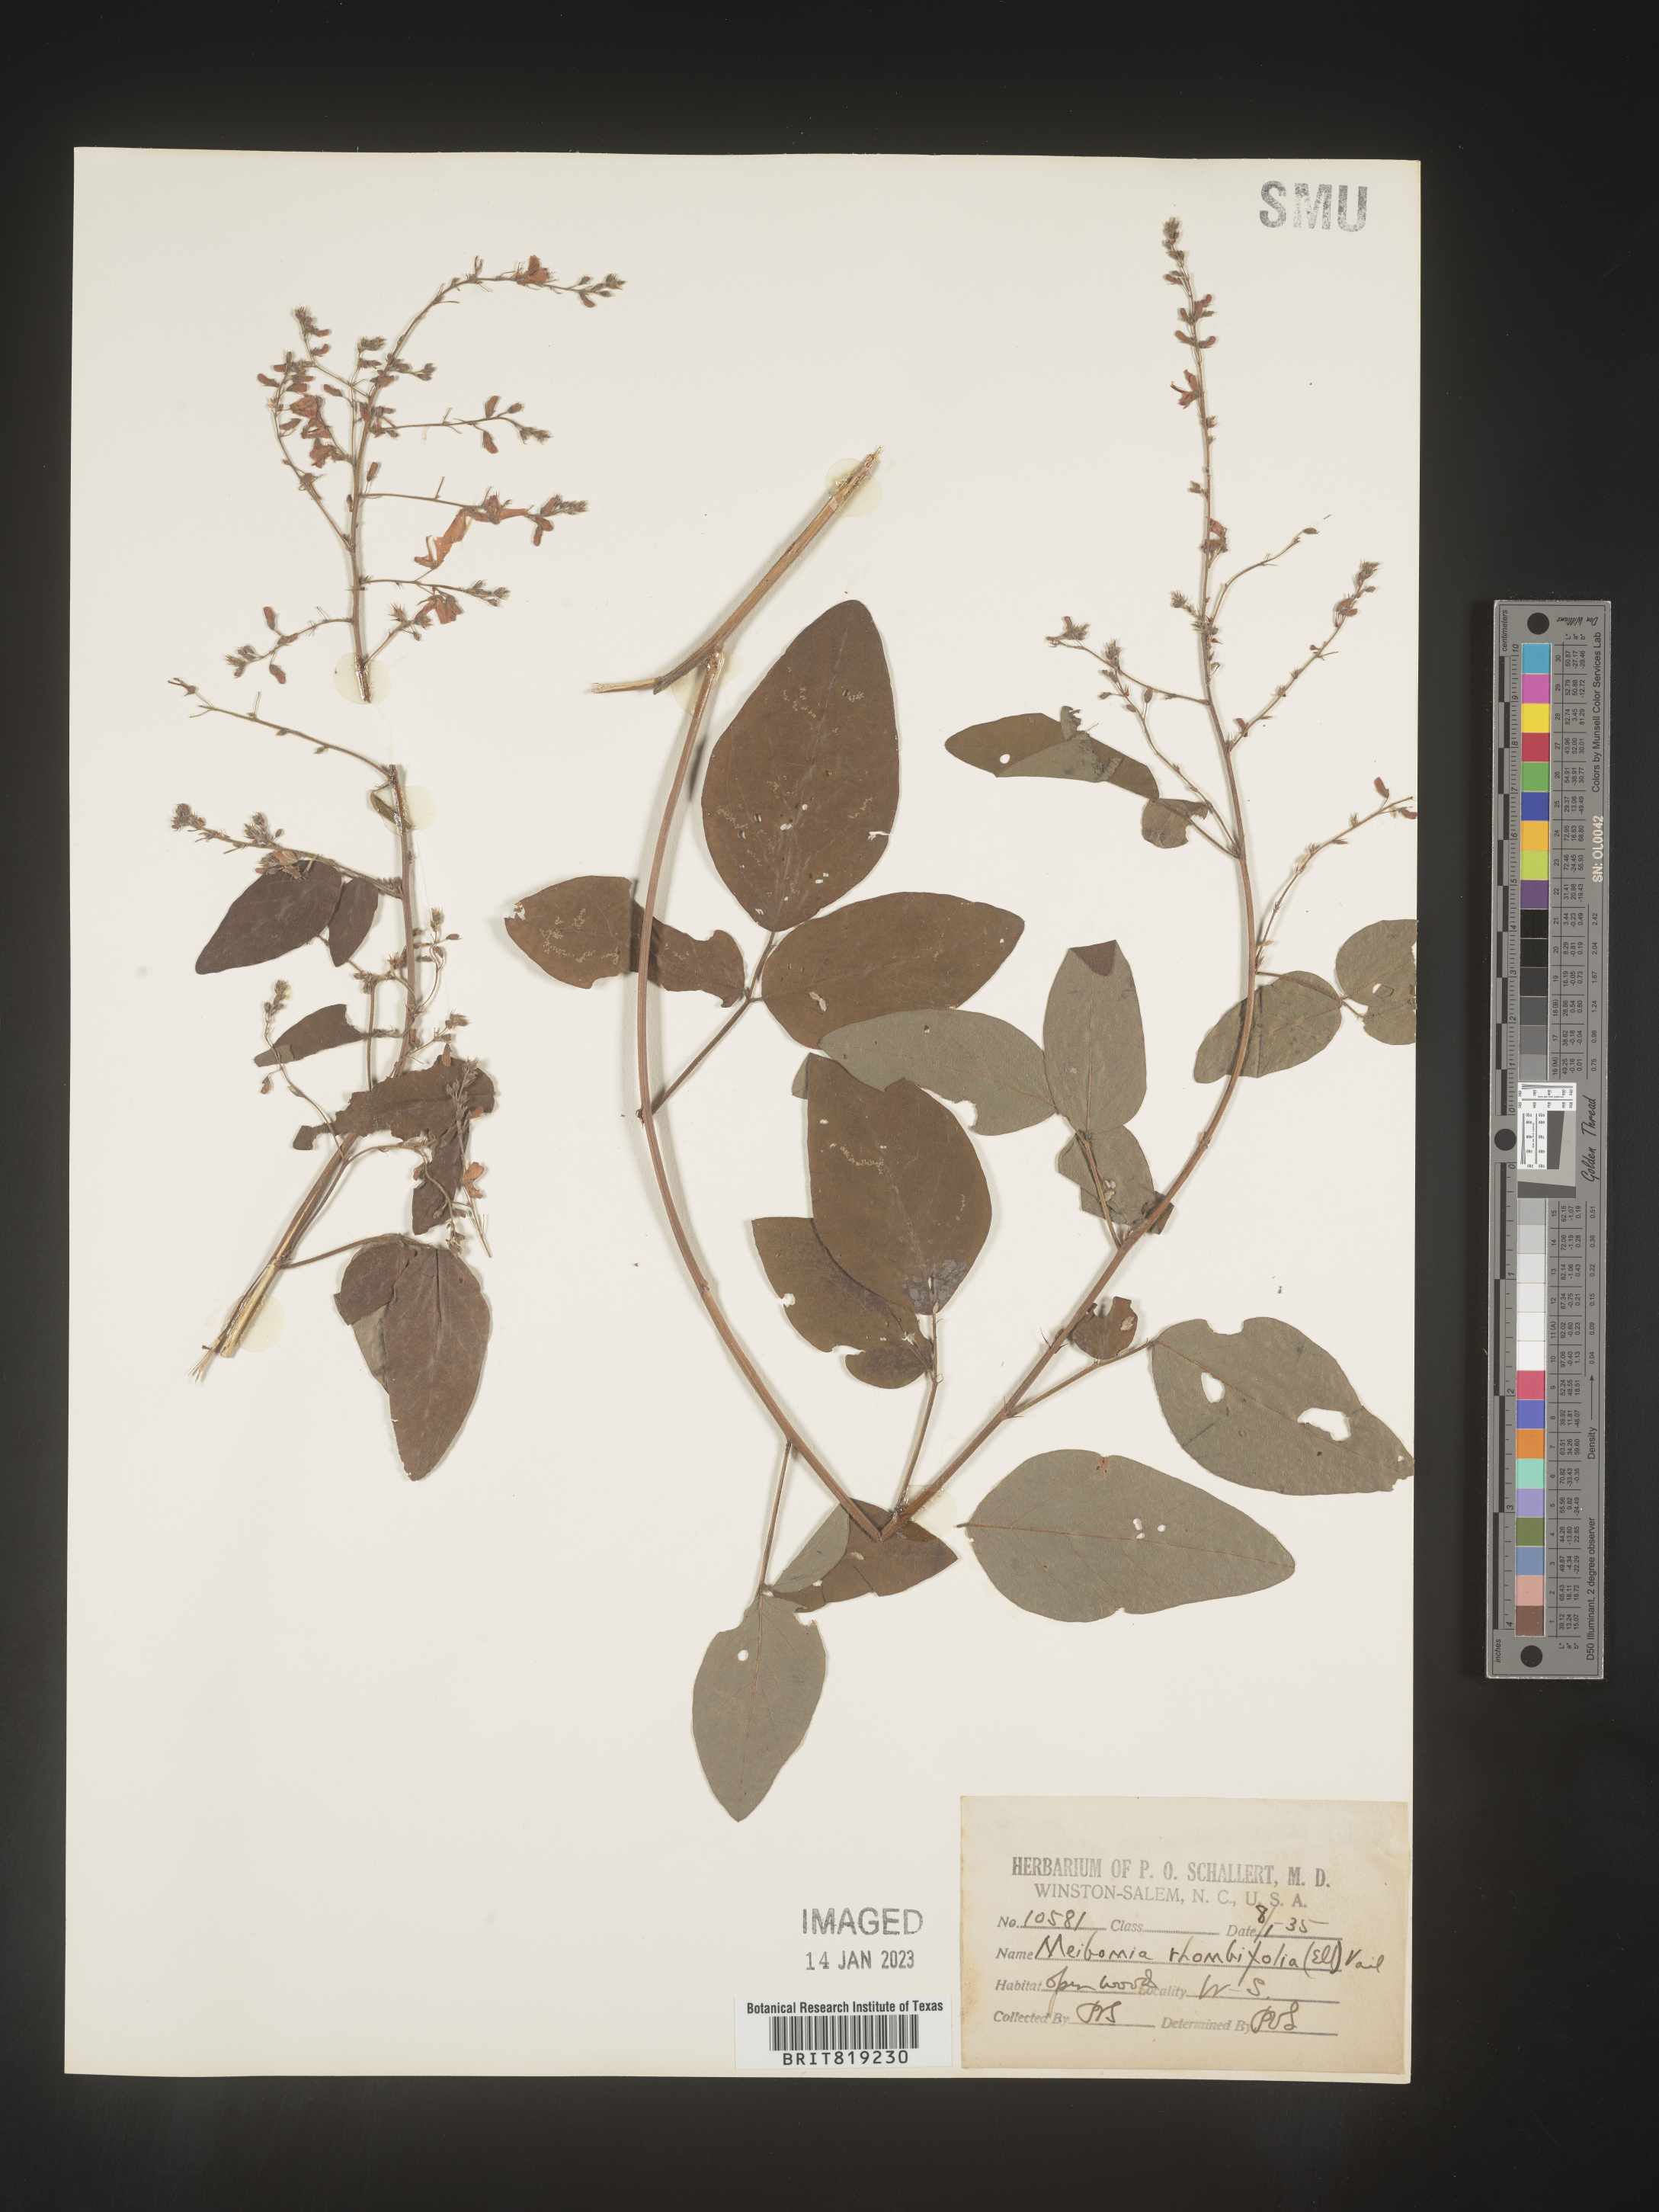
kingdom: Plantae
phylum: Tracheophyta
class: Magnoliopsida
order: Fabales
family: Fabaceae
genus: Desmodium
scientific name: Desmodium
